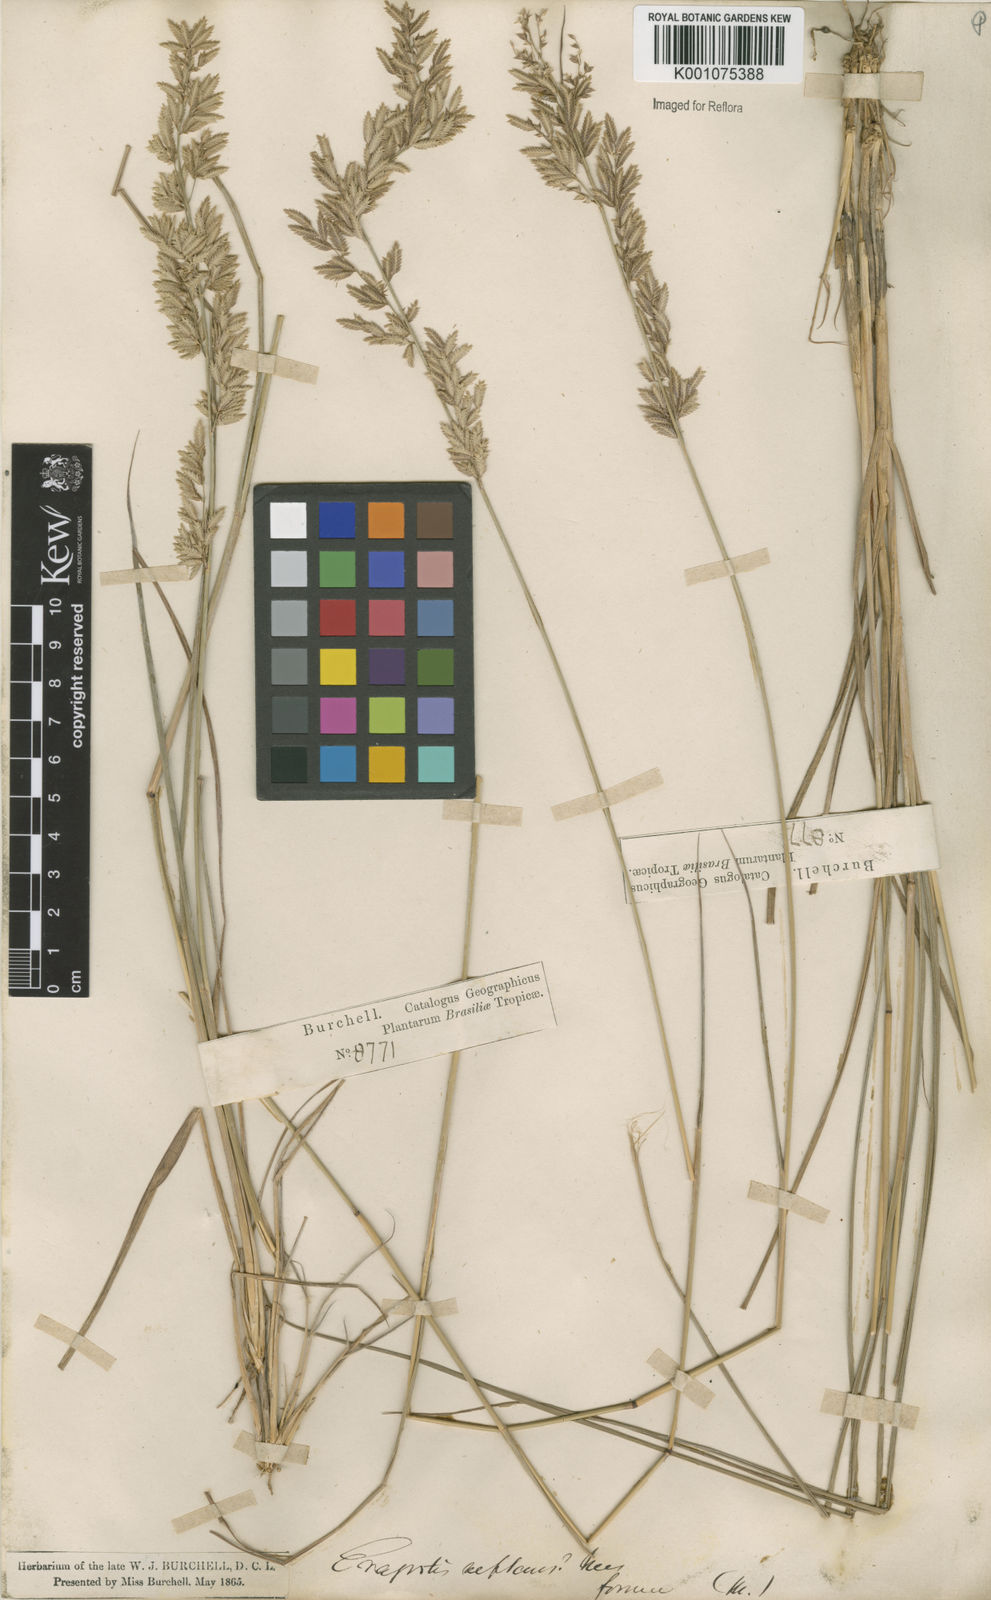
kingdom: Plantae
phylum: Tracheophyta
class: Liliopsida
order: Poales
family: Poaceae
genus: Eragrostis
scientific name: Eragrostis solida
